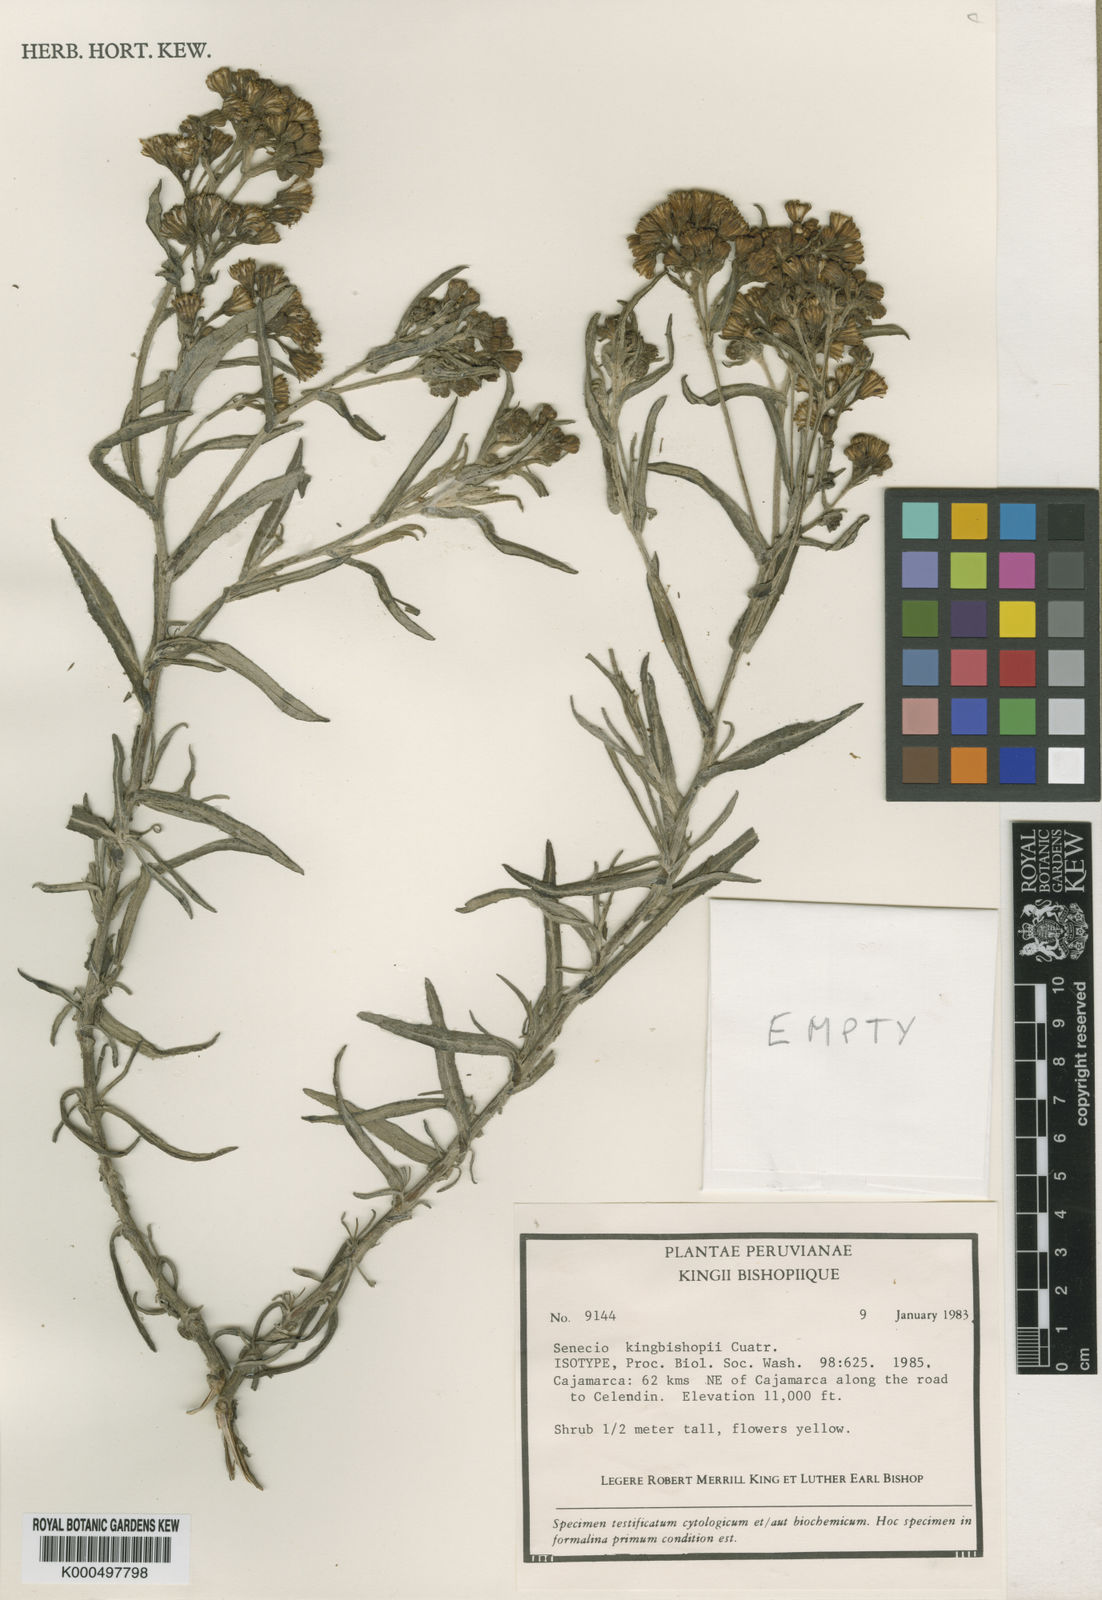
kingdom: Plantae
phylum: Tracheophyta
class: Magnoliopsida
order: Asterales
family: Asteraceae
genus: Senecio
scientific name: Senecio kingbishopii
